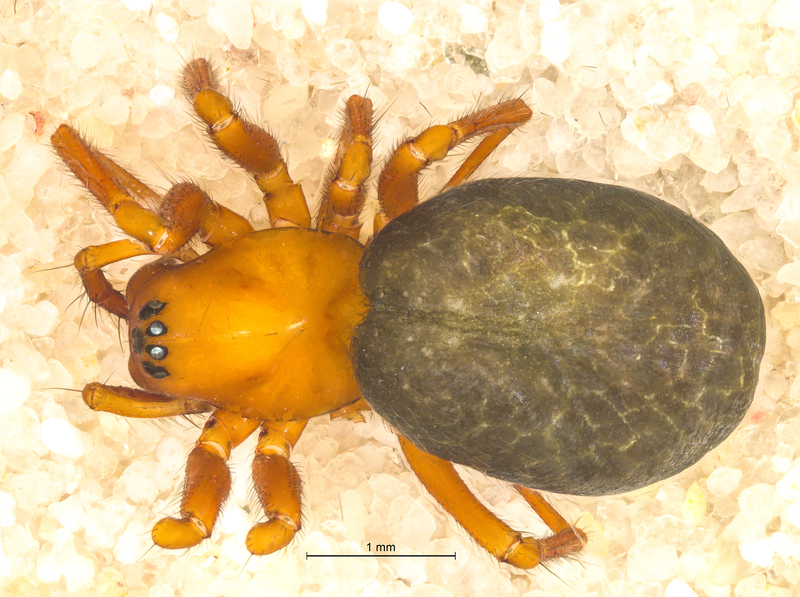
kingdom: Animalia
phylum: Arthropoda
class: Arachnida
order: Araneae
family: Linyphiidae
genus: Macrargus
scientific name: Macrargus rufus
